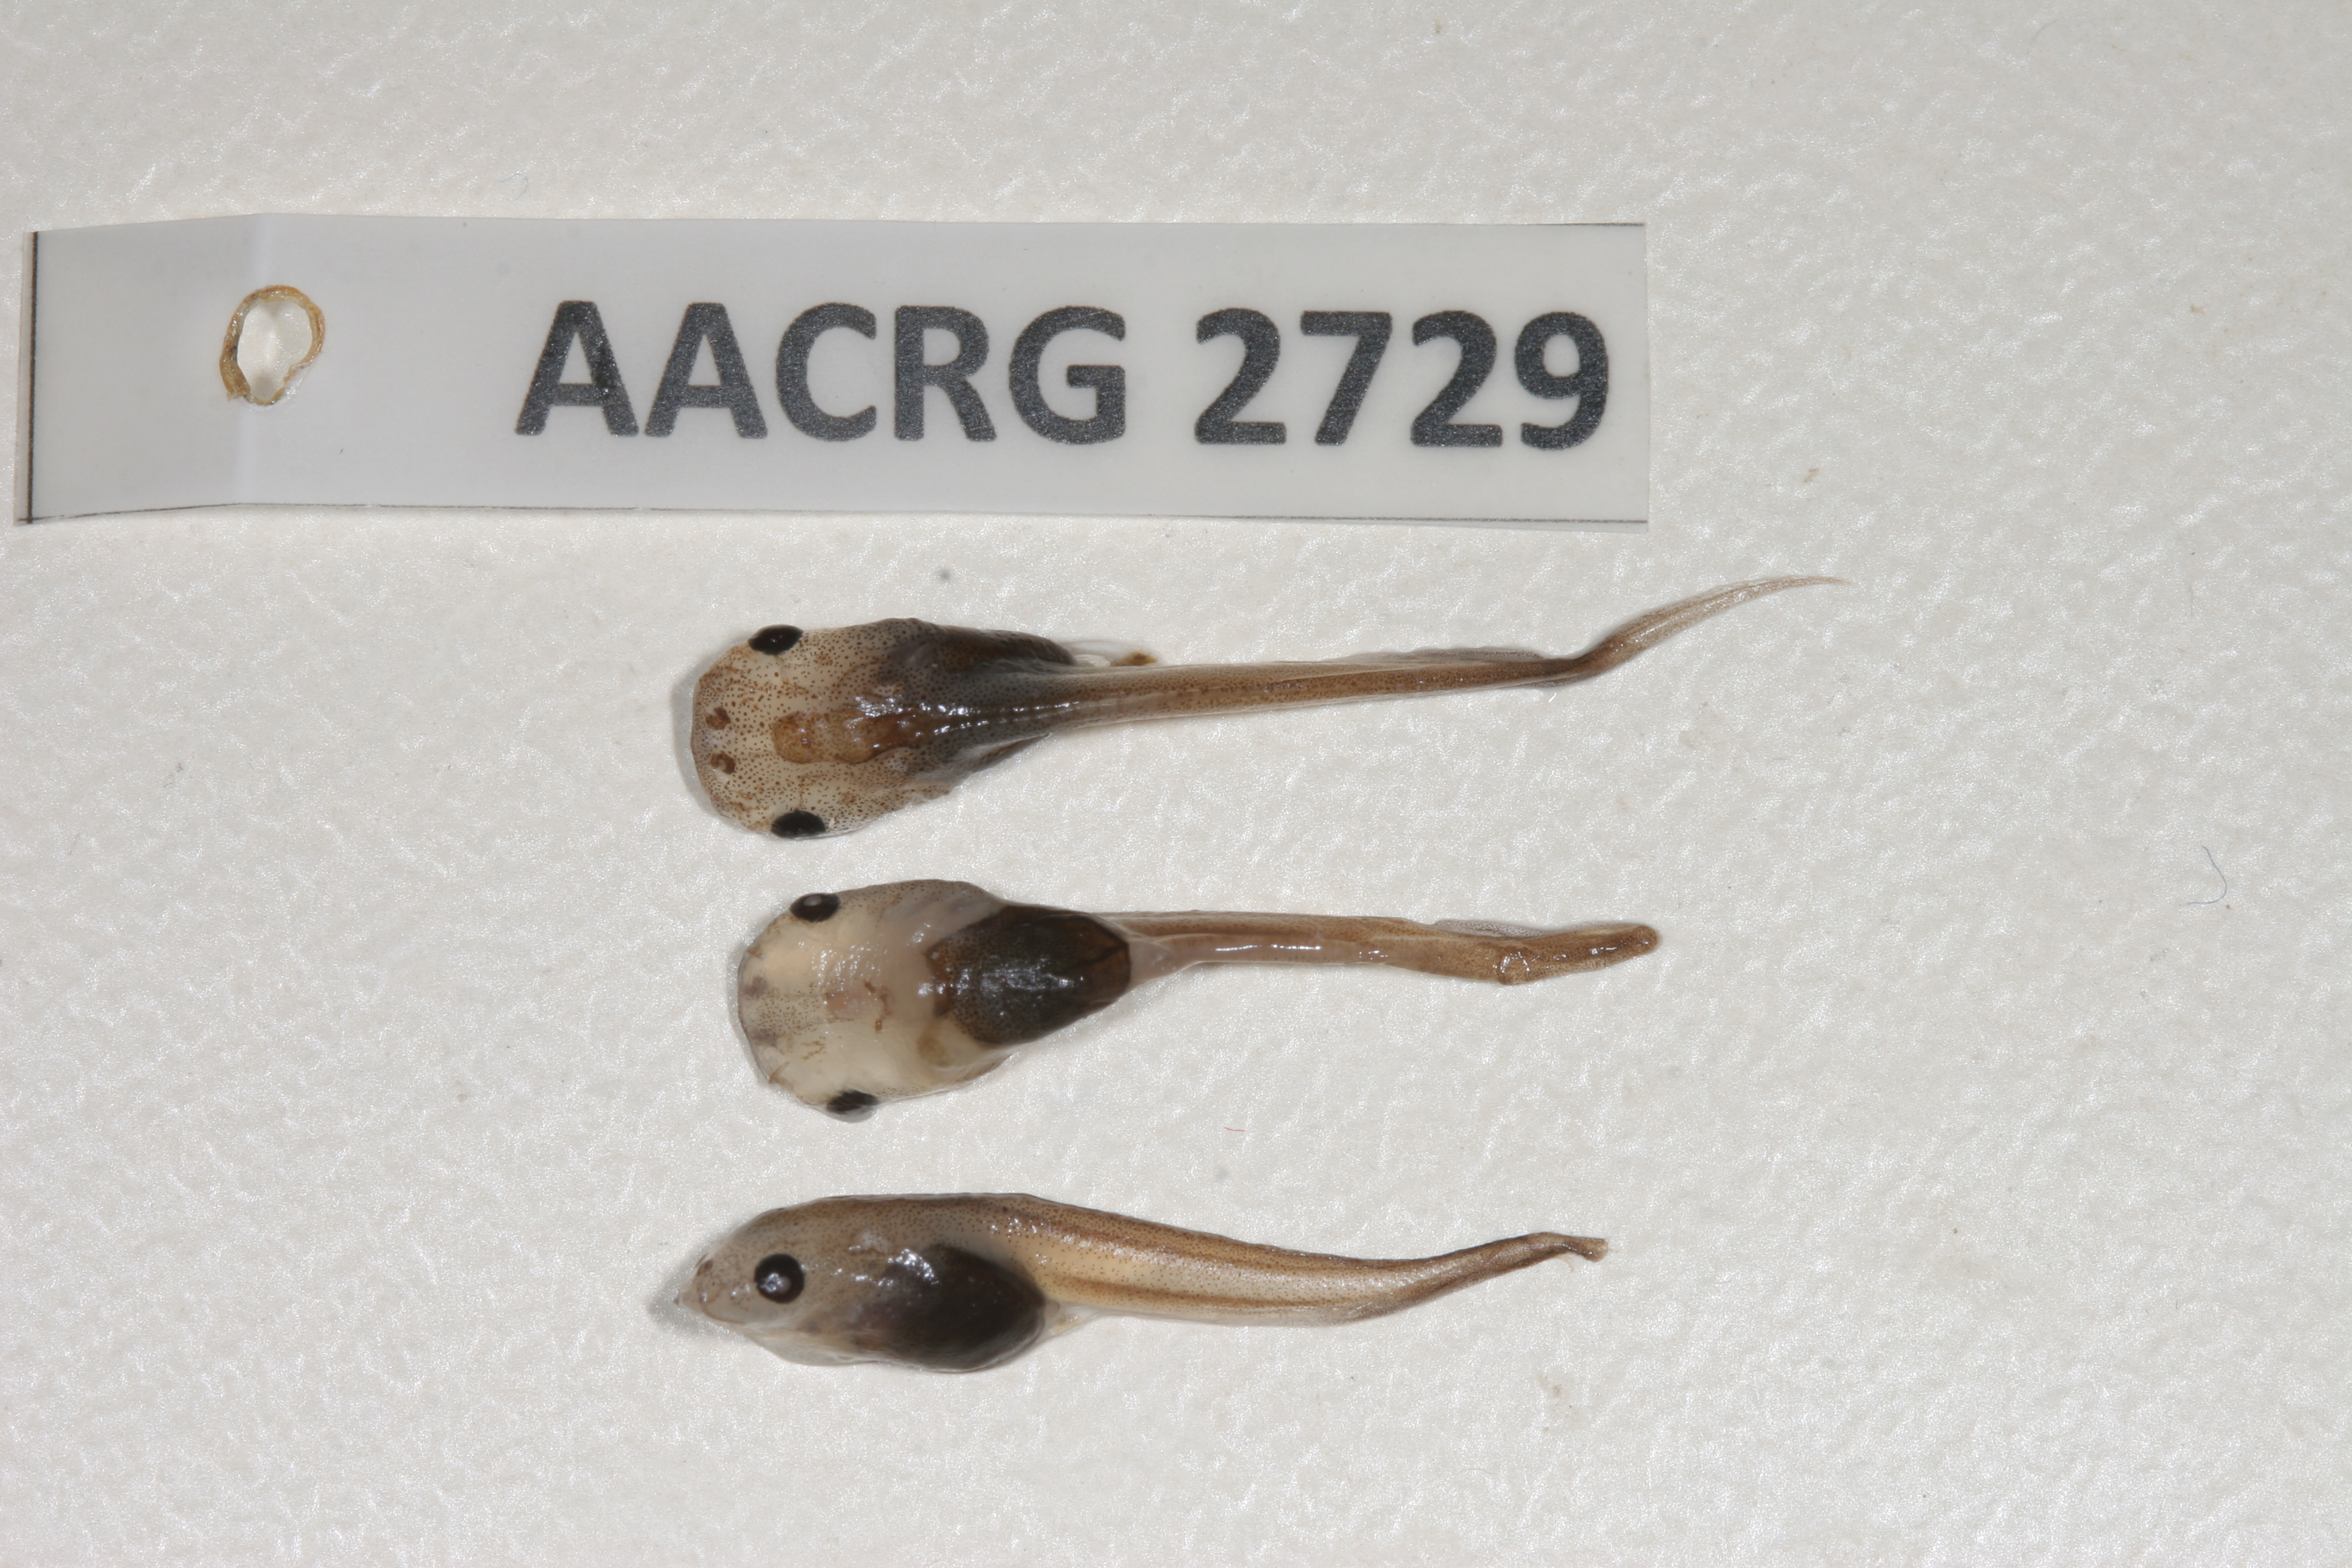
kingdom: Animalia
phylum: Chordata
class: Amphibia
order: Anura
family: Pipidae
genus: Xenopus
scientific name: Xenopus laevis
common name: African clawed frog
